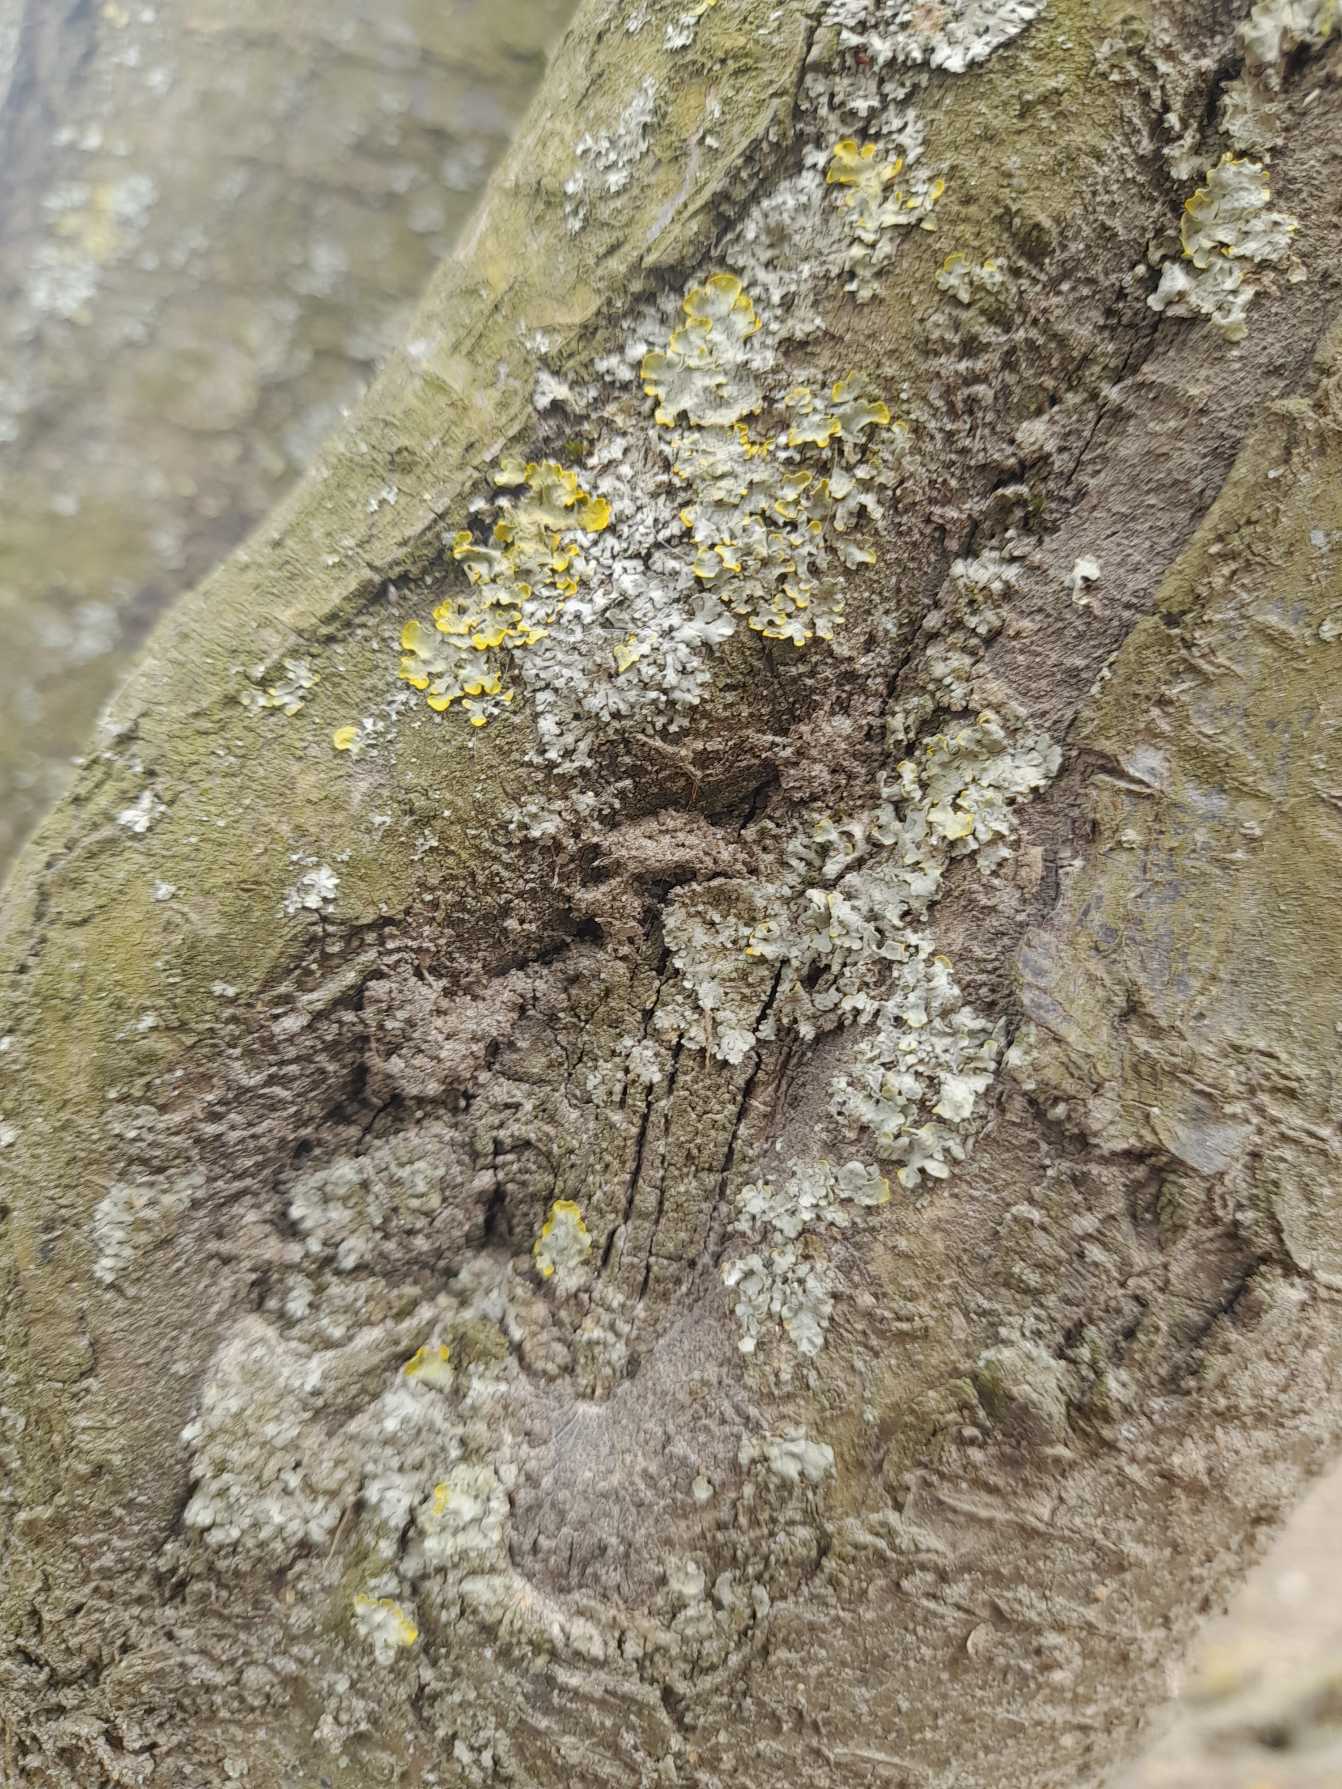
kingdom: Fungi
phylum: Ascomycota
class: Lecanoromycetes
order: Teloschistales
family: Teloschistaceae
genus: Xanthoria
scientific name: Xanthoria parietina
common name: Almindelig væggelav
